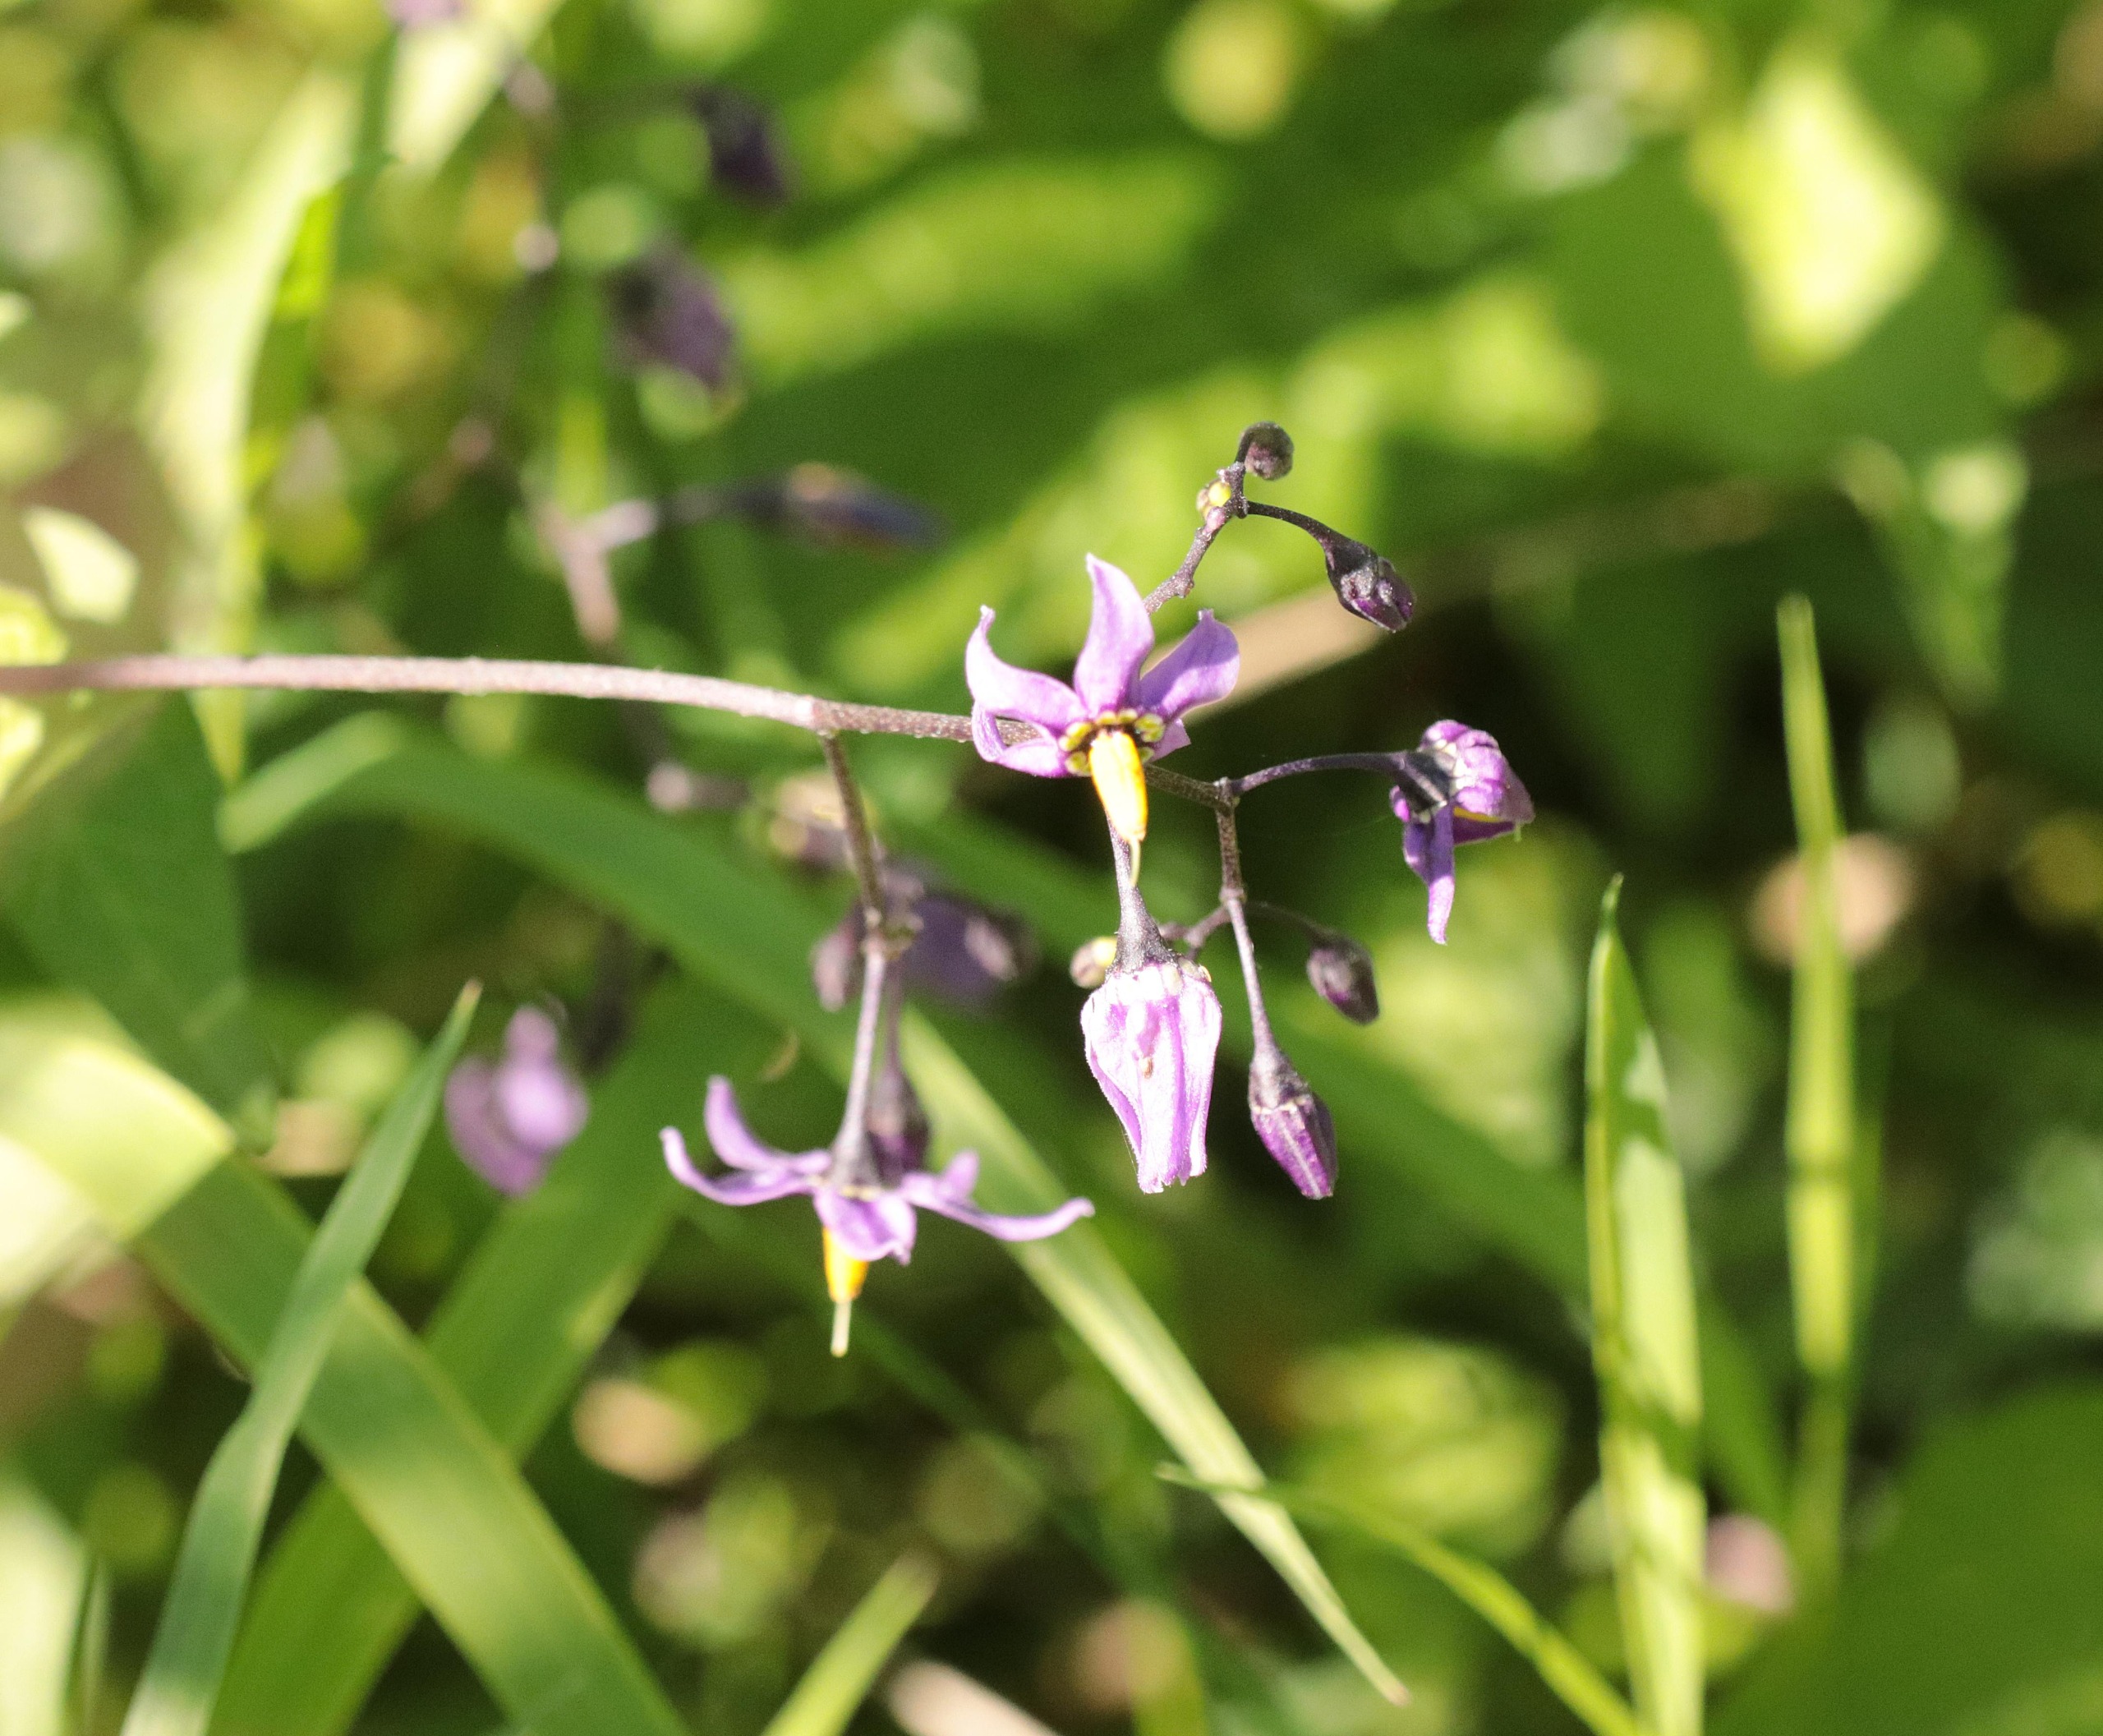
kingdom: Plantae
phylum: Tracheophyta
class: Magnoliopsida
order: Solanales
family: Solanaceae
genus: Solanum
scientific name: Solanum dulcamara
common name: Bittersød natskygge
